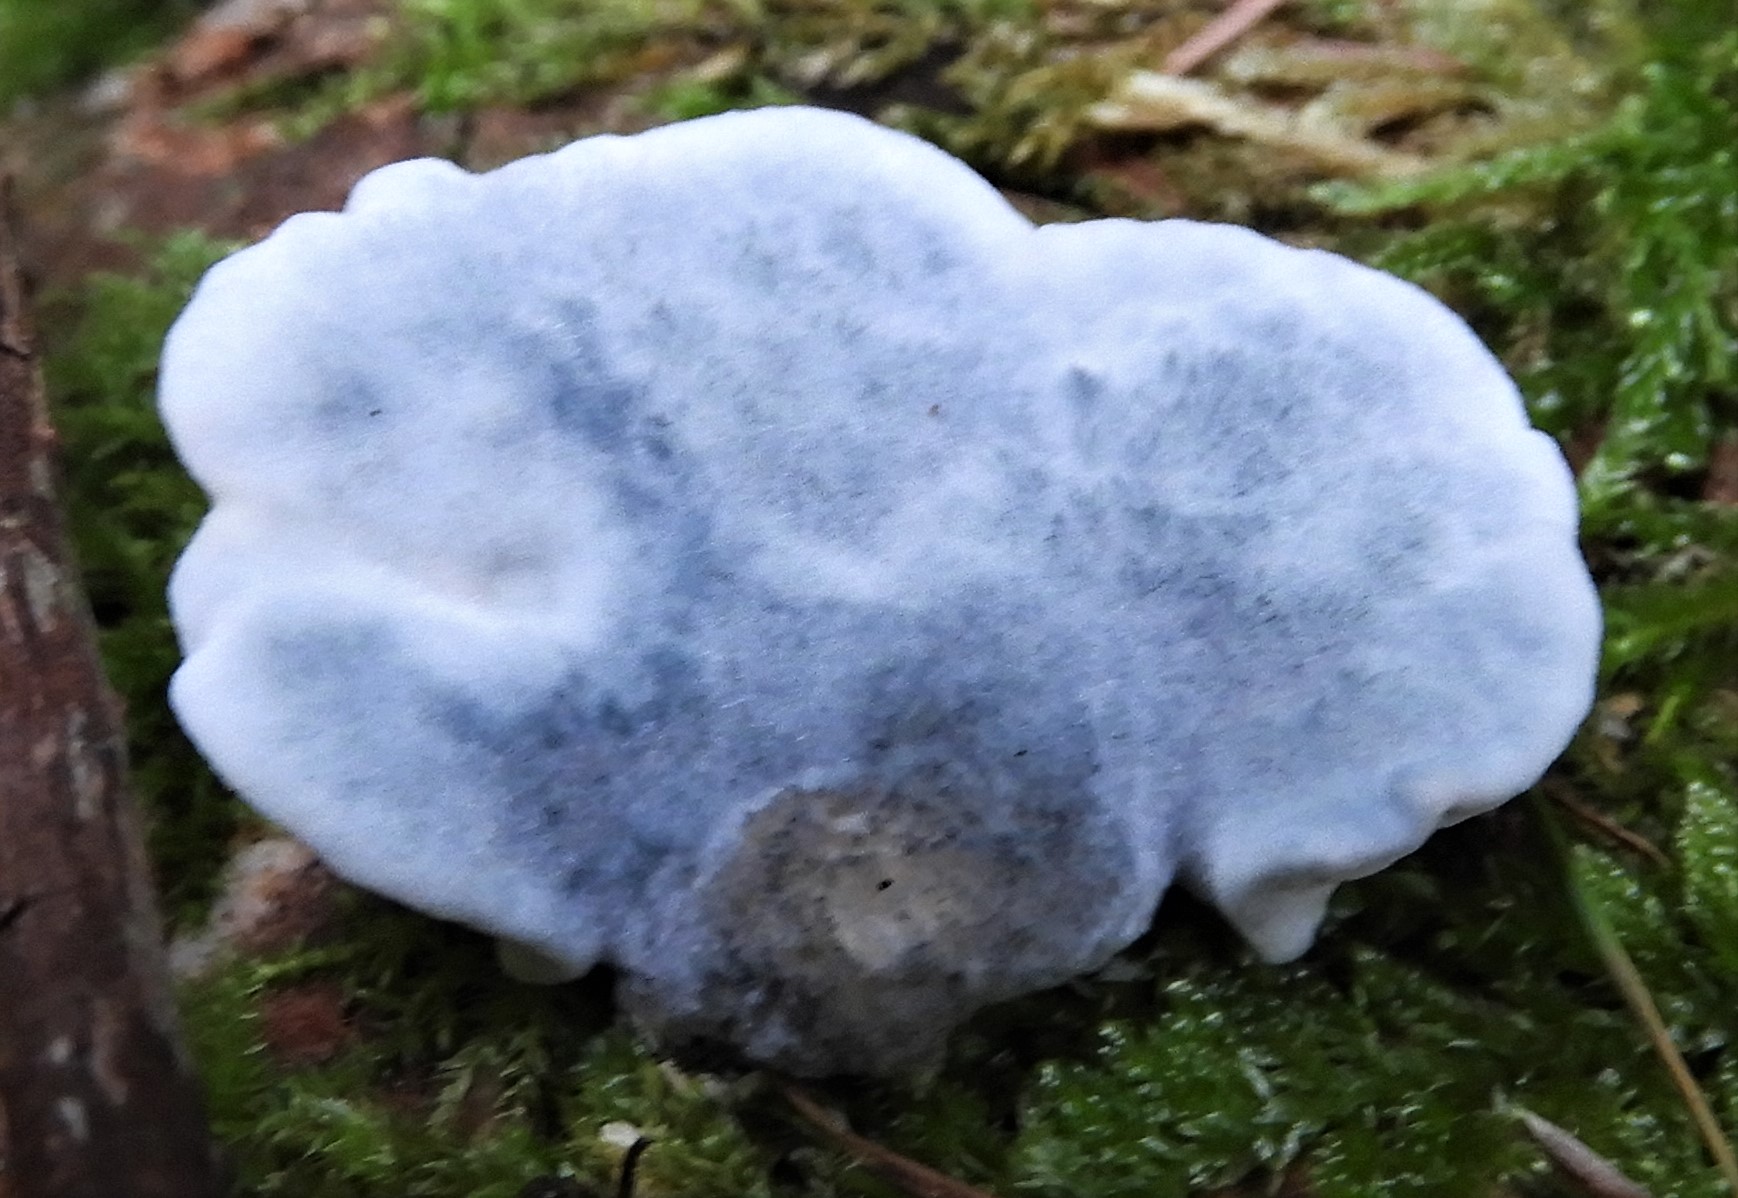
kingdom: Fungi
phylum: Basidiomycota
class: Agaricomycetes
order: Polyporales
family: Polyporaceae
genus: Cyanosporus
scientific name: Cyanosporus alni
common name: blegblå kødporesvamp
